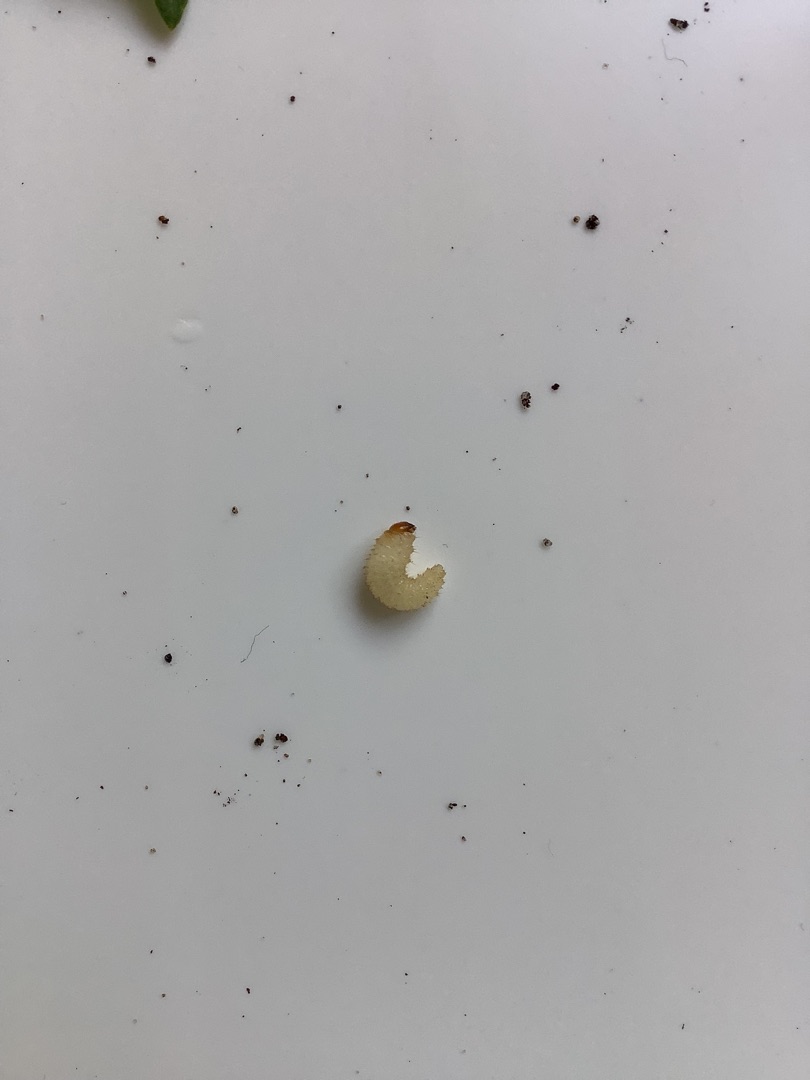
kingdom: Animalia
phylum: Arthropoda
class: Insecta
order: Coleoptera
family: Curculionidae
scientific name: Curculionidae
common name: Snudebiller
